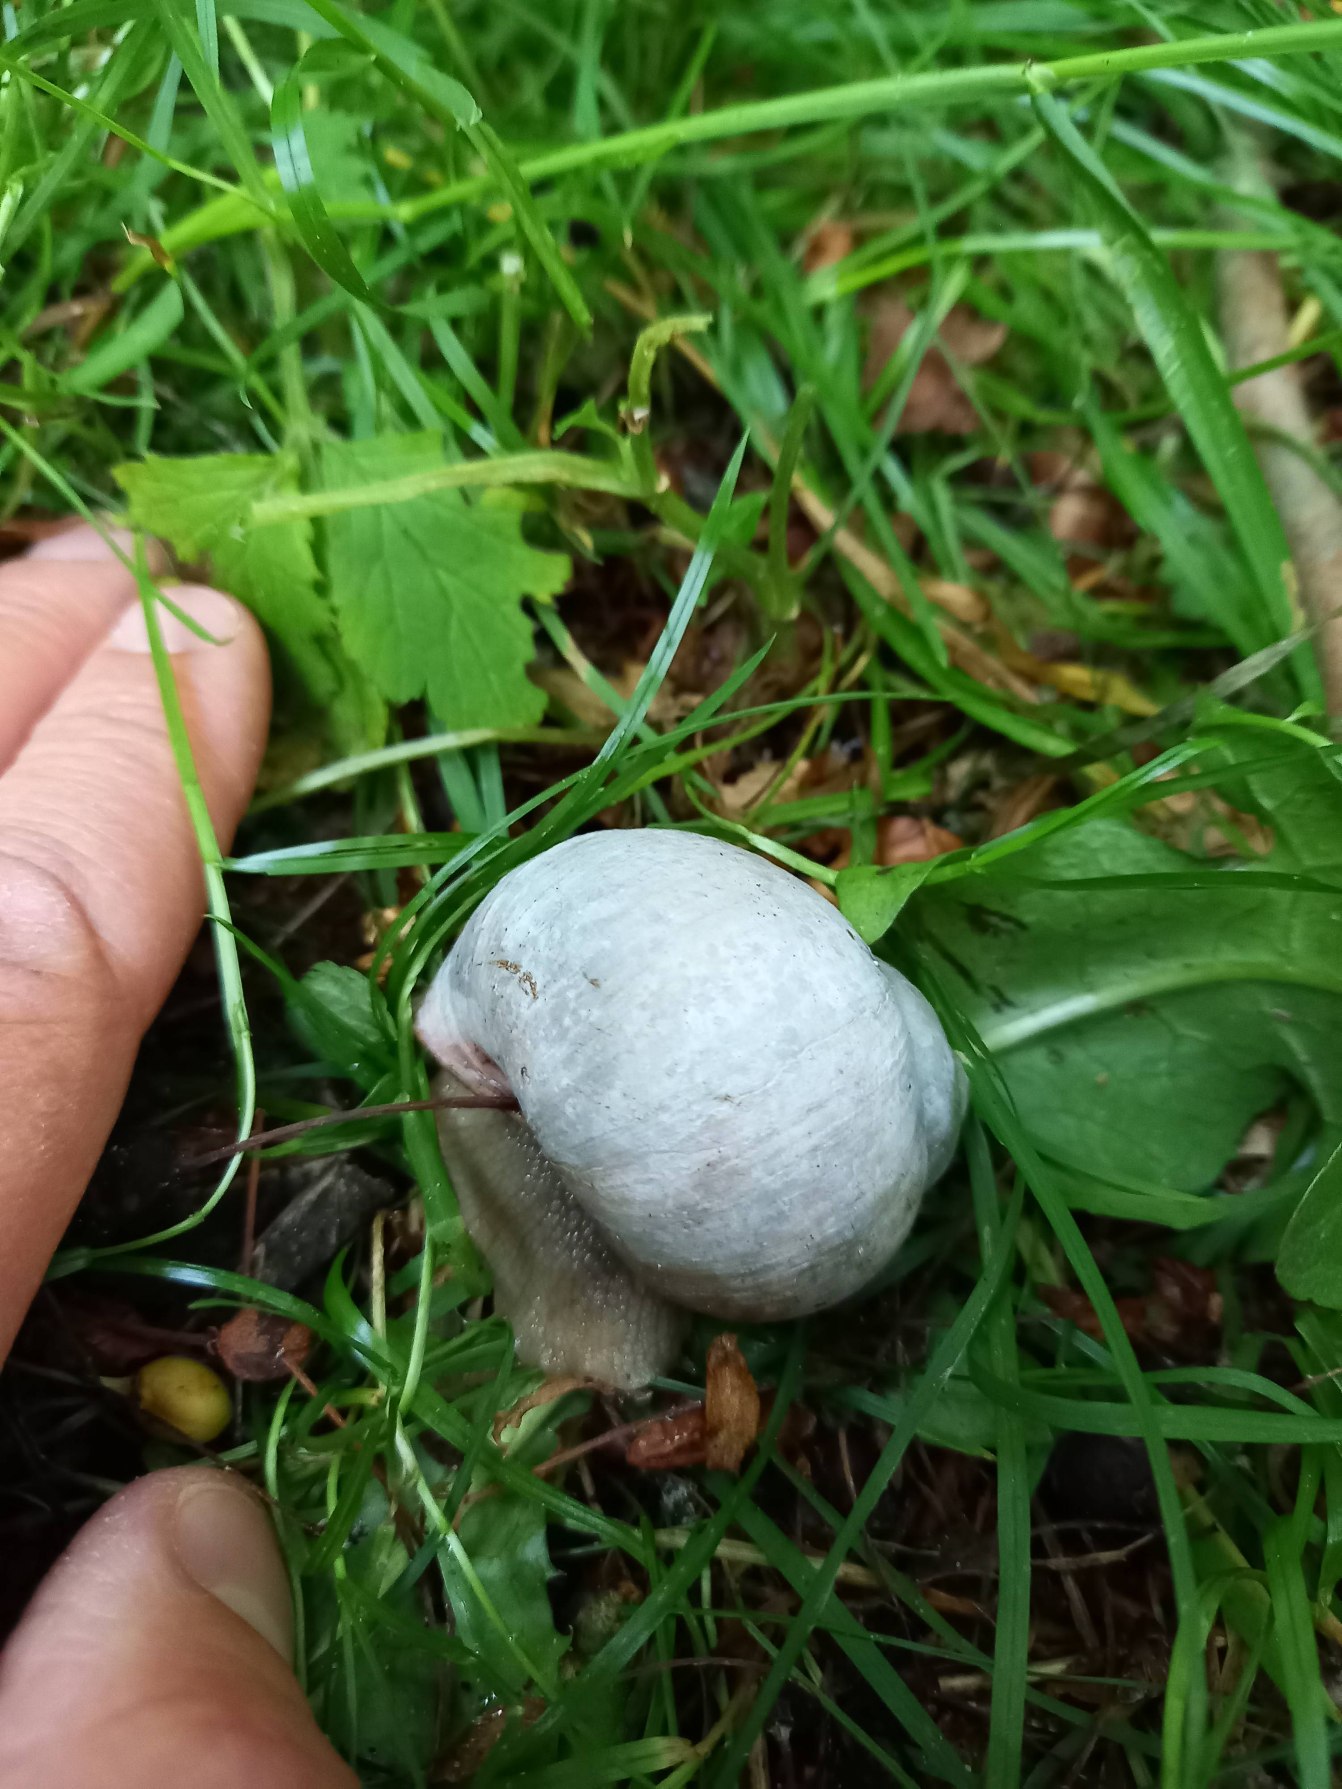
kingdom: Animalia
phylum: Mollusca
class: Gastropoda
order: Stylommatophora
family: Helicidae
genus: Helix
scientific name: Helix pomatia
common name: Vinbjergsnegl
